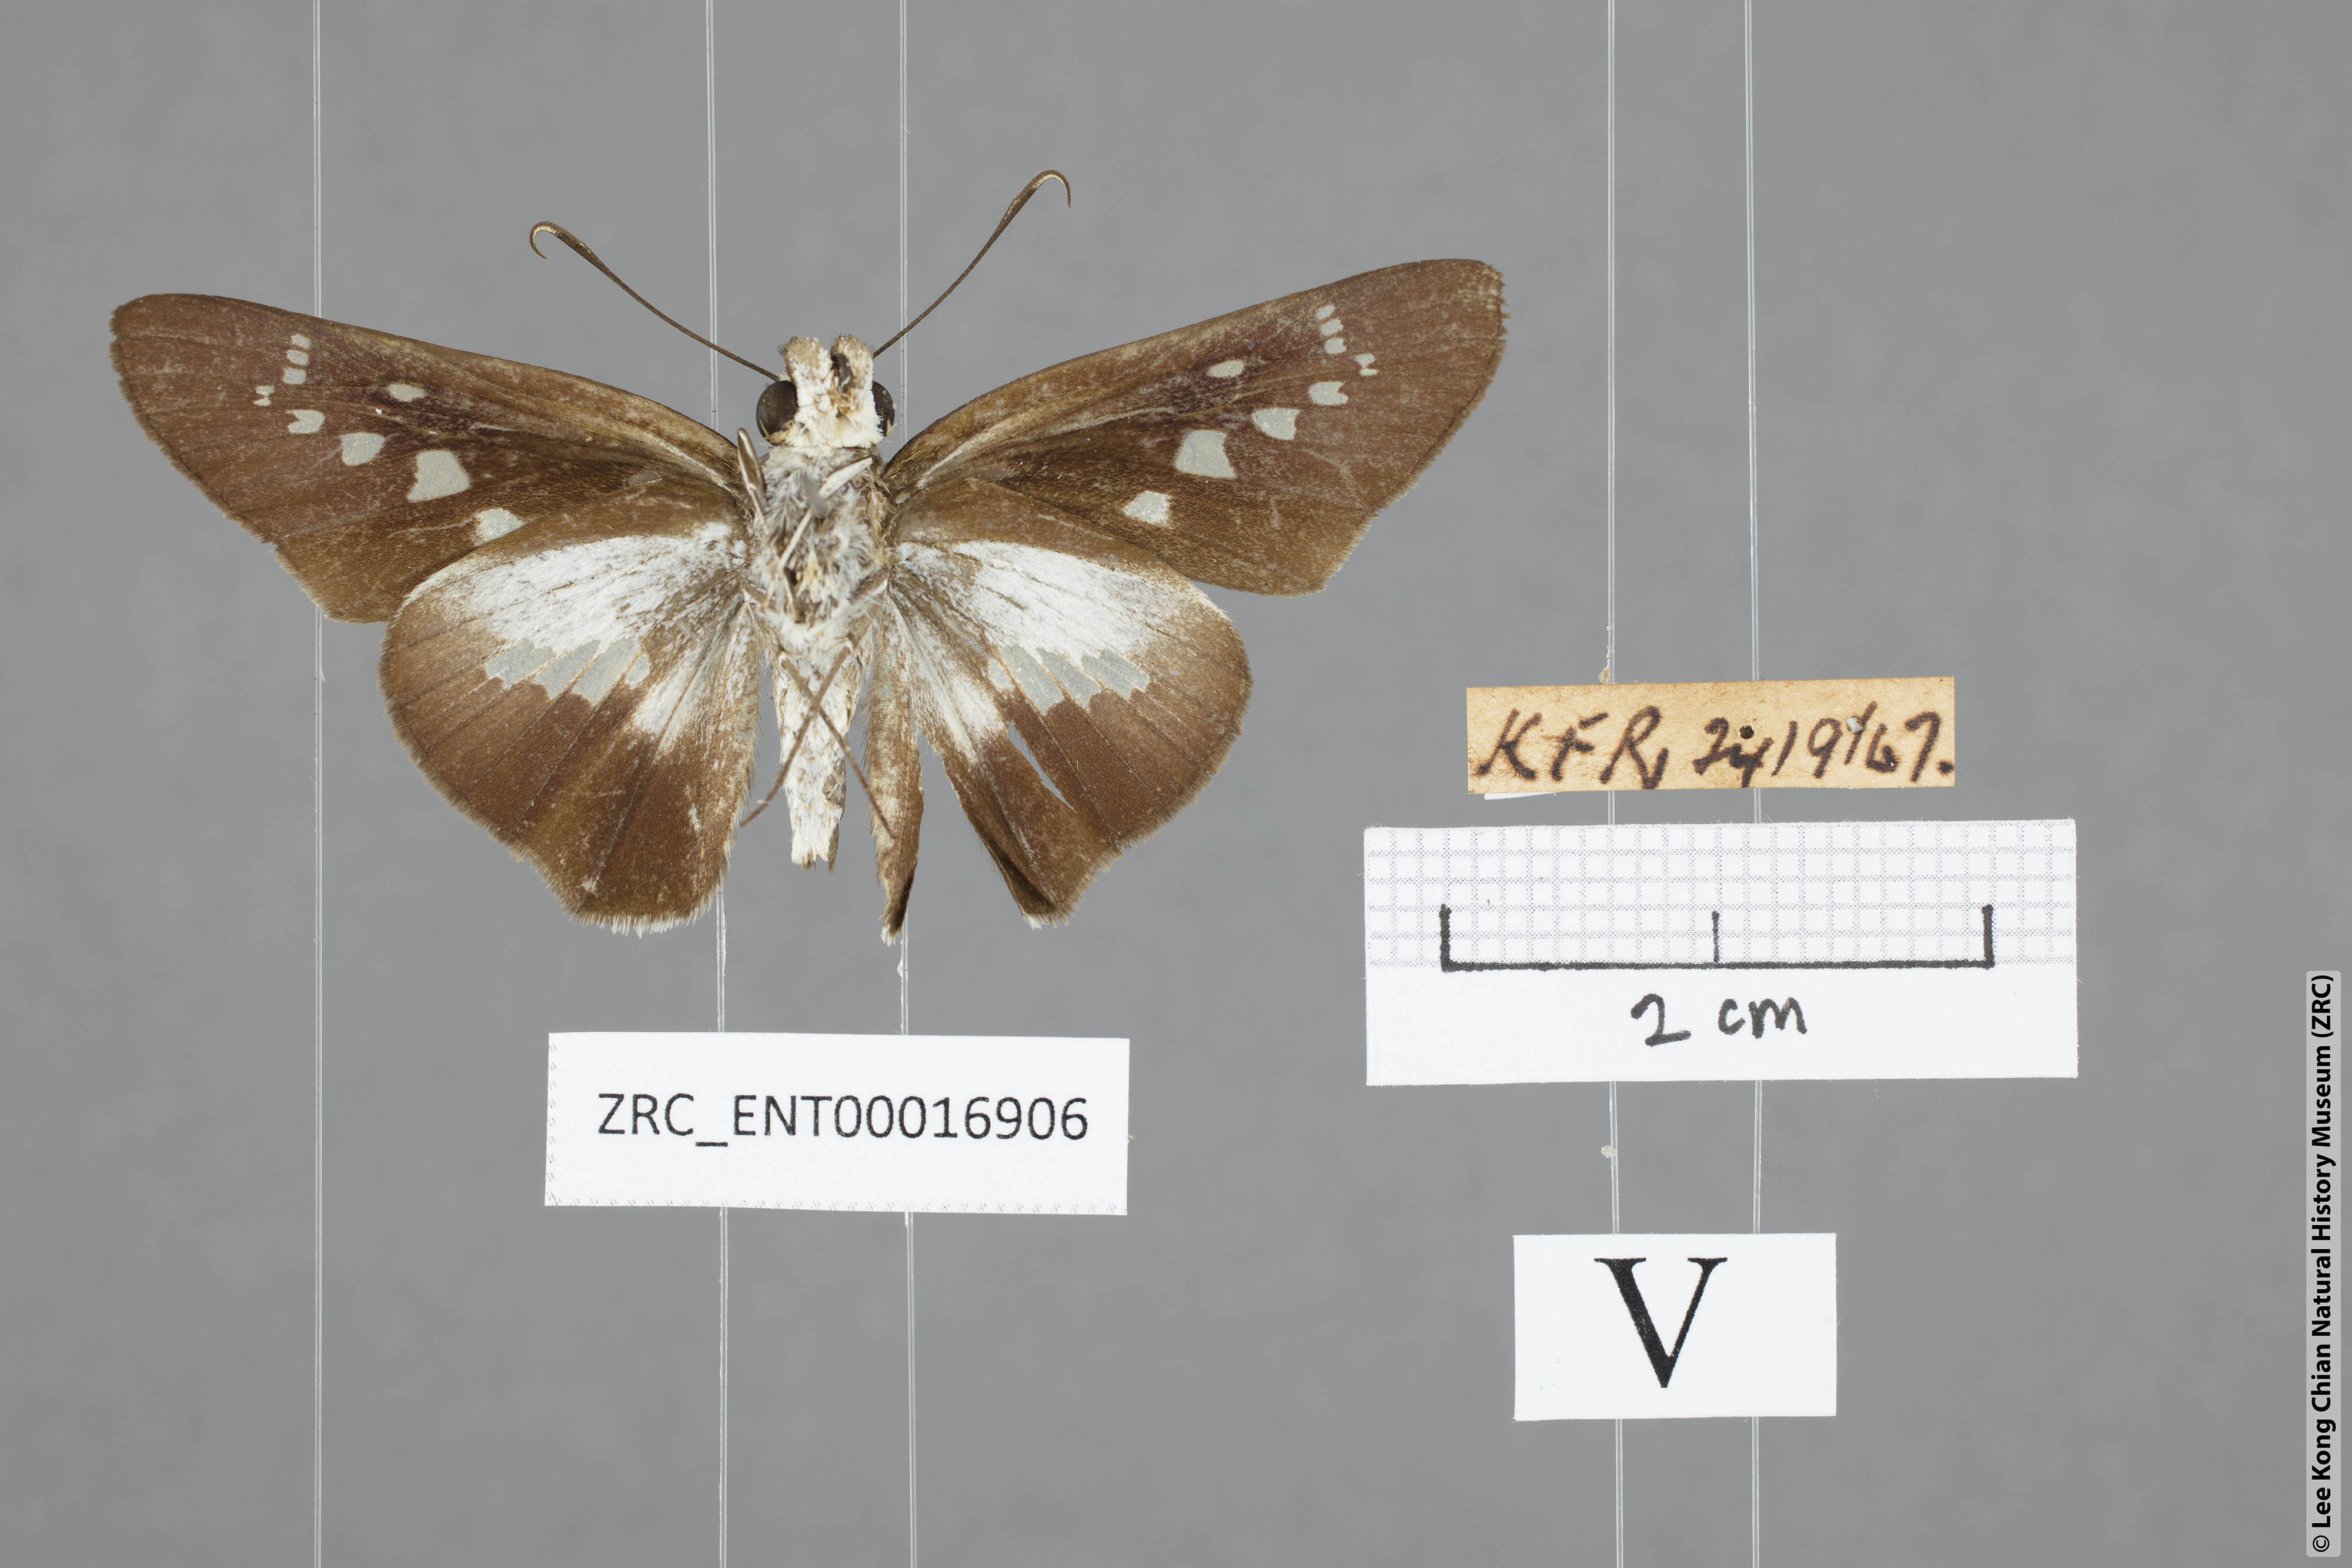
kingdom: Animalia
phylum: Arthropoda
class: Insecta
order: Lepidoptera
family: Hesperiidae
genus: Eetion
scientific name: Eetion elia
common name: White spotted palmer
